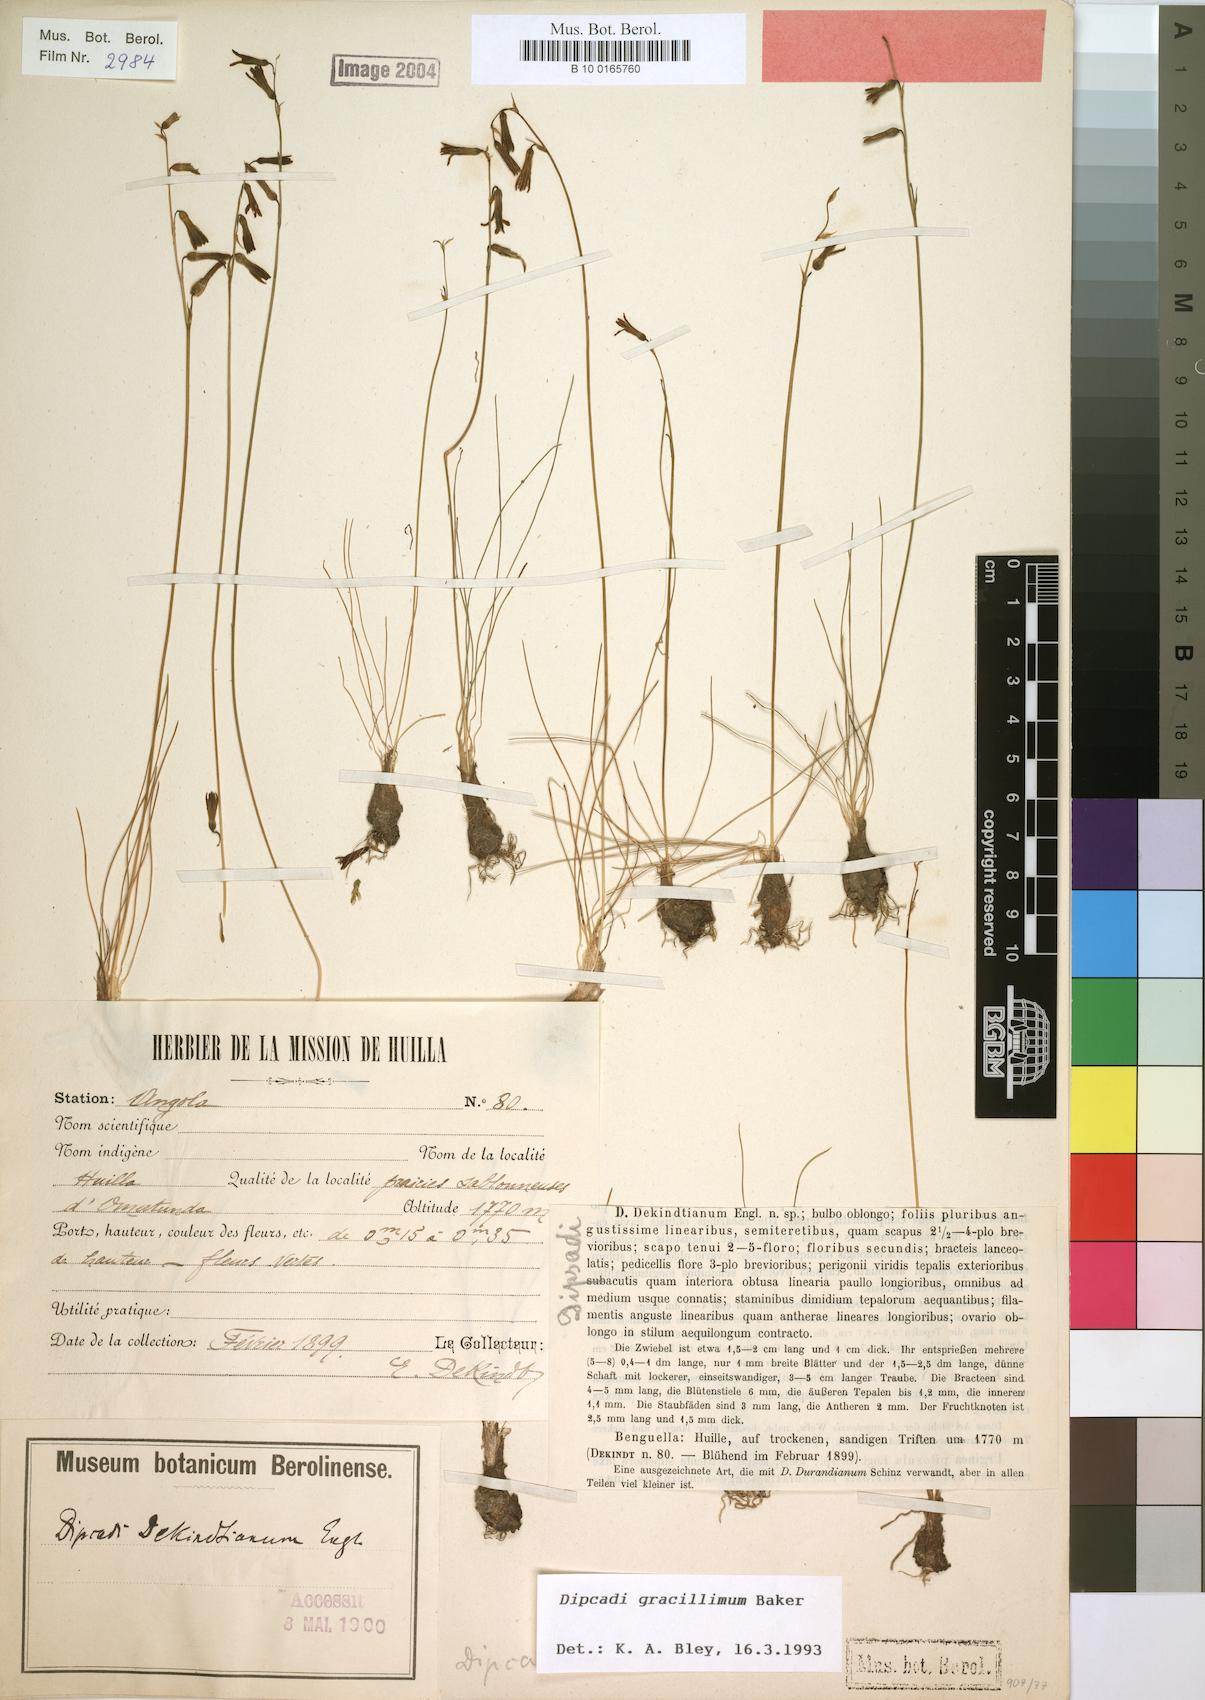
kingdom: Plantae
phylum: Tracheophyta
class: Liliopsida
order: Asparagales
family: Asparagaceae
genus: Dipcadi
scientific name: Dipcadi gracillimum
